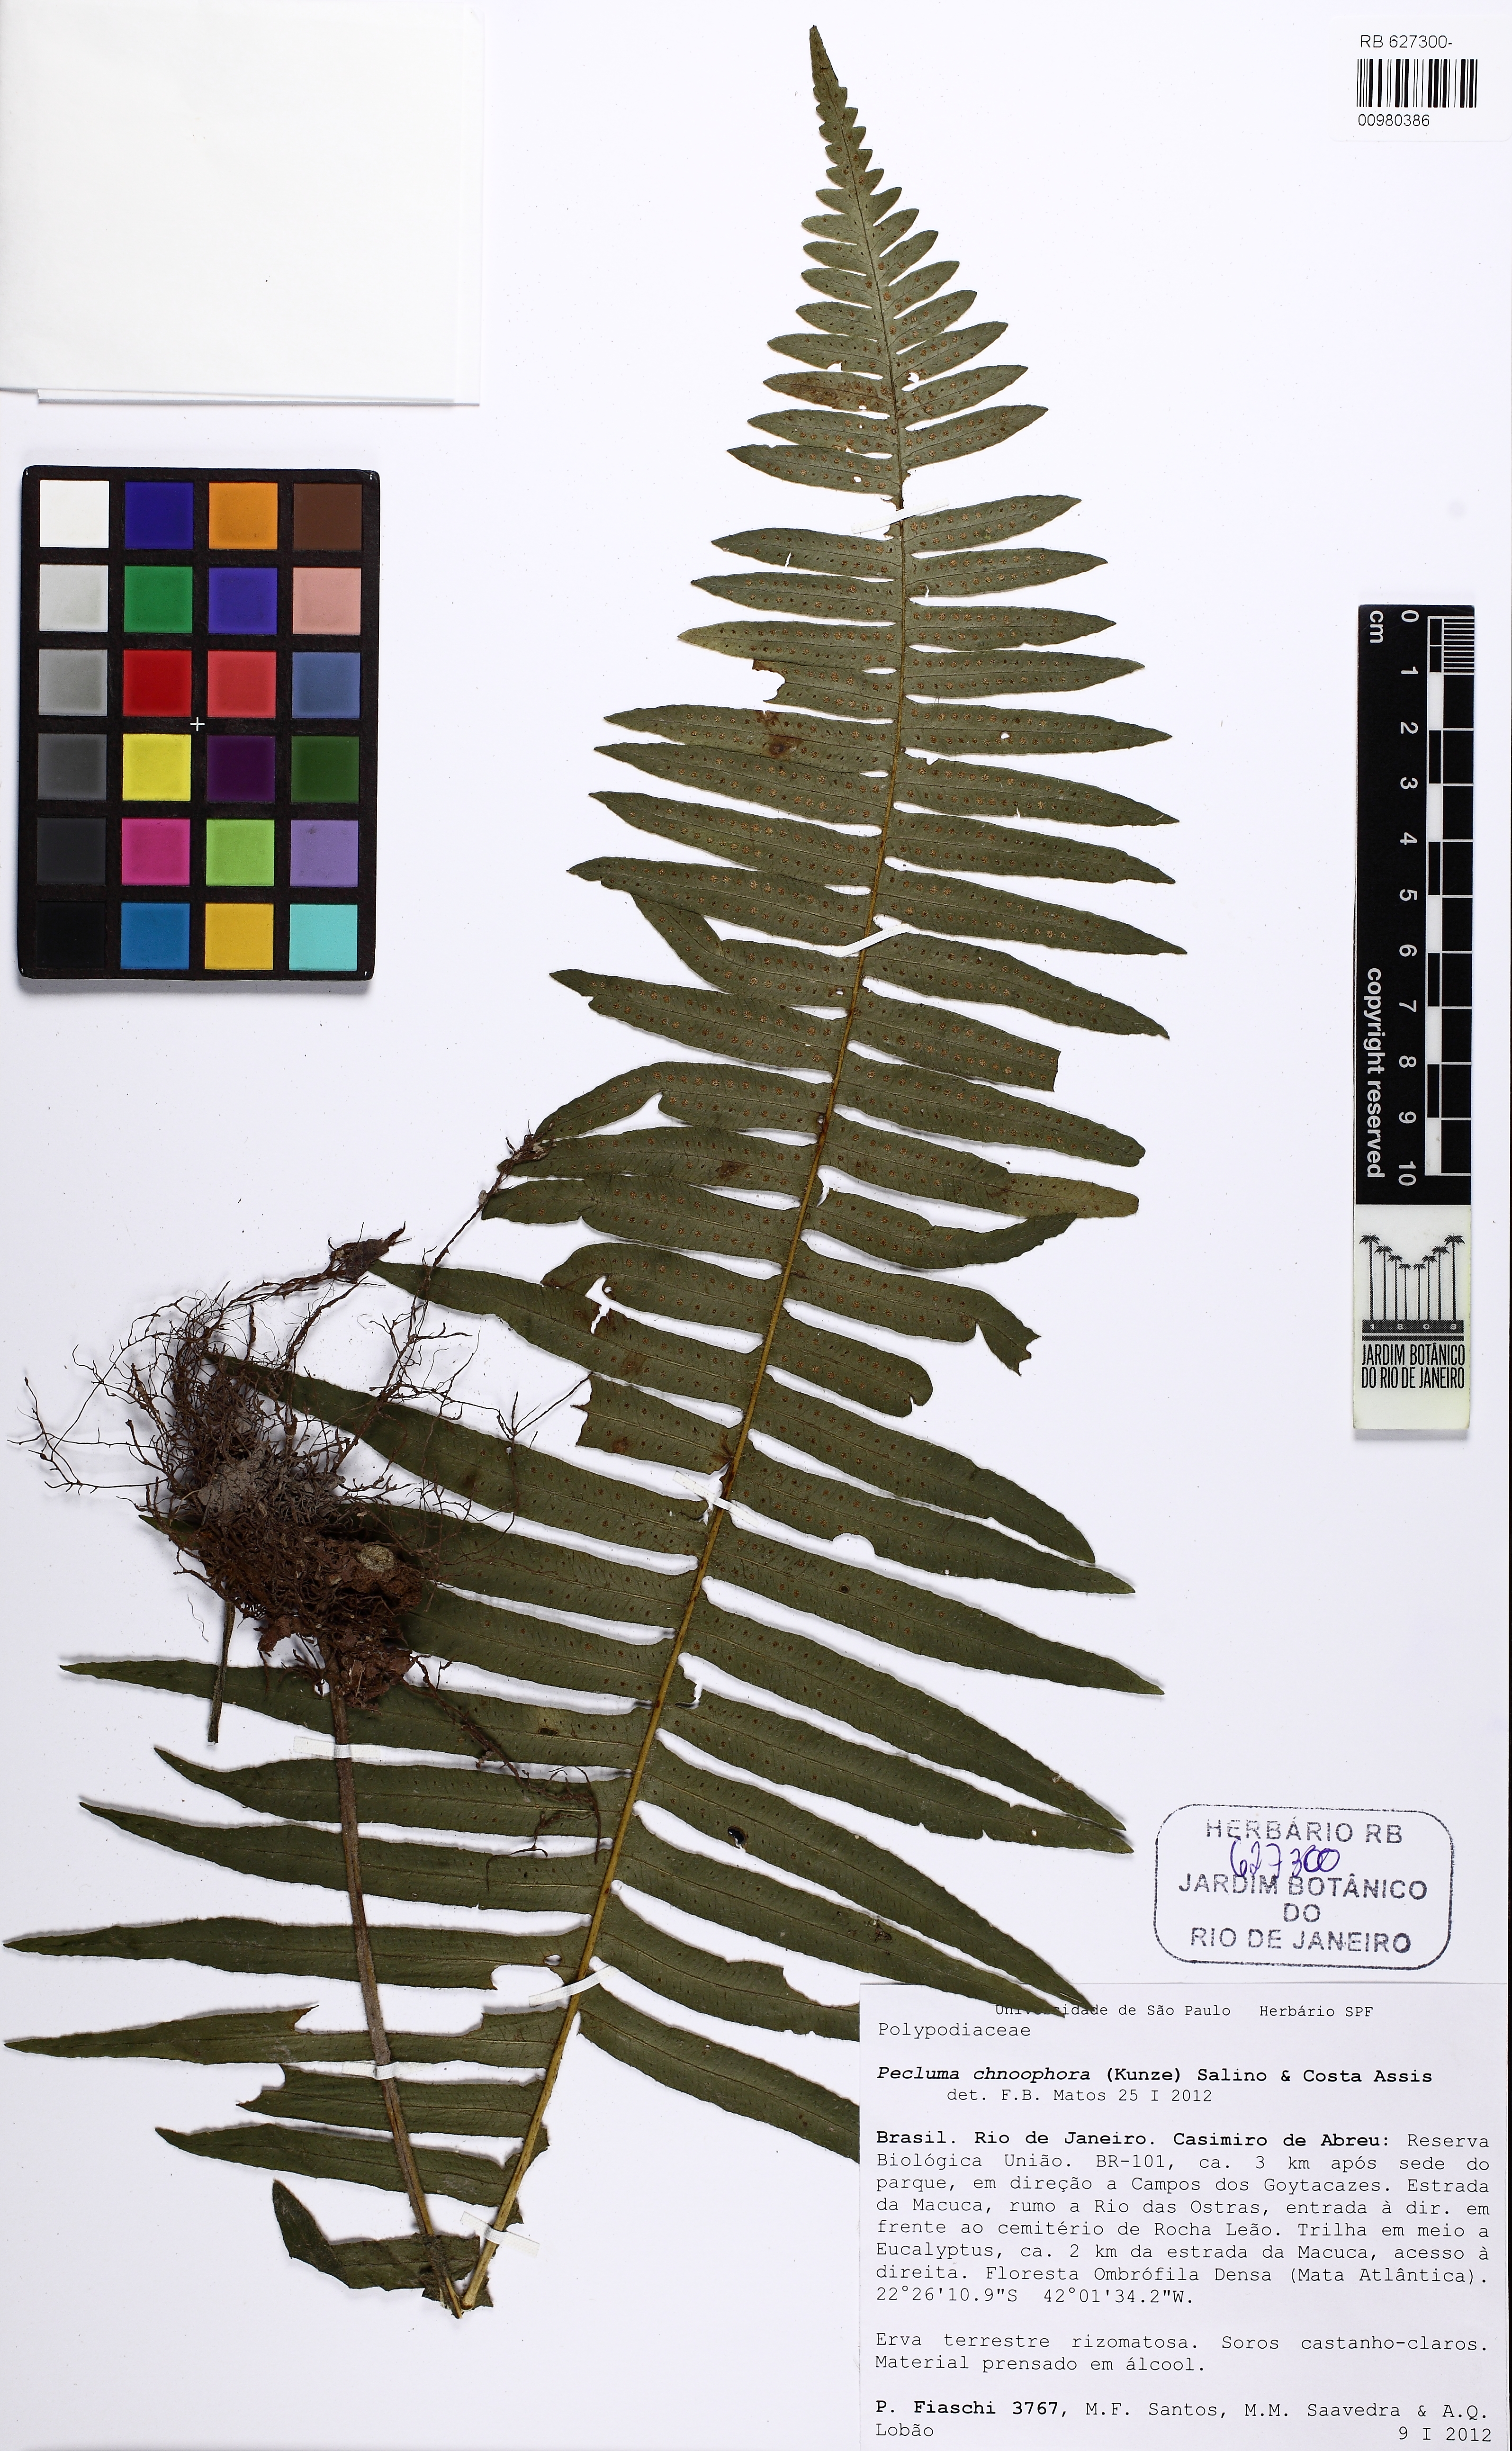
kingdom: Plantae
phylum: Tracheophyta
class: Polypodiopsida
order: Polypodiales
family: Polypodiaceae
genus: Pecluma
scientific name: Pecluma chnoophora
